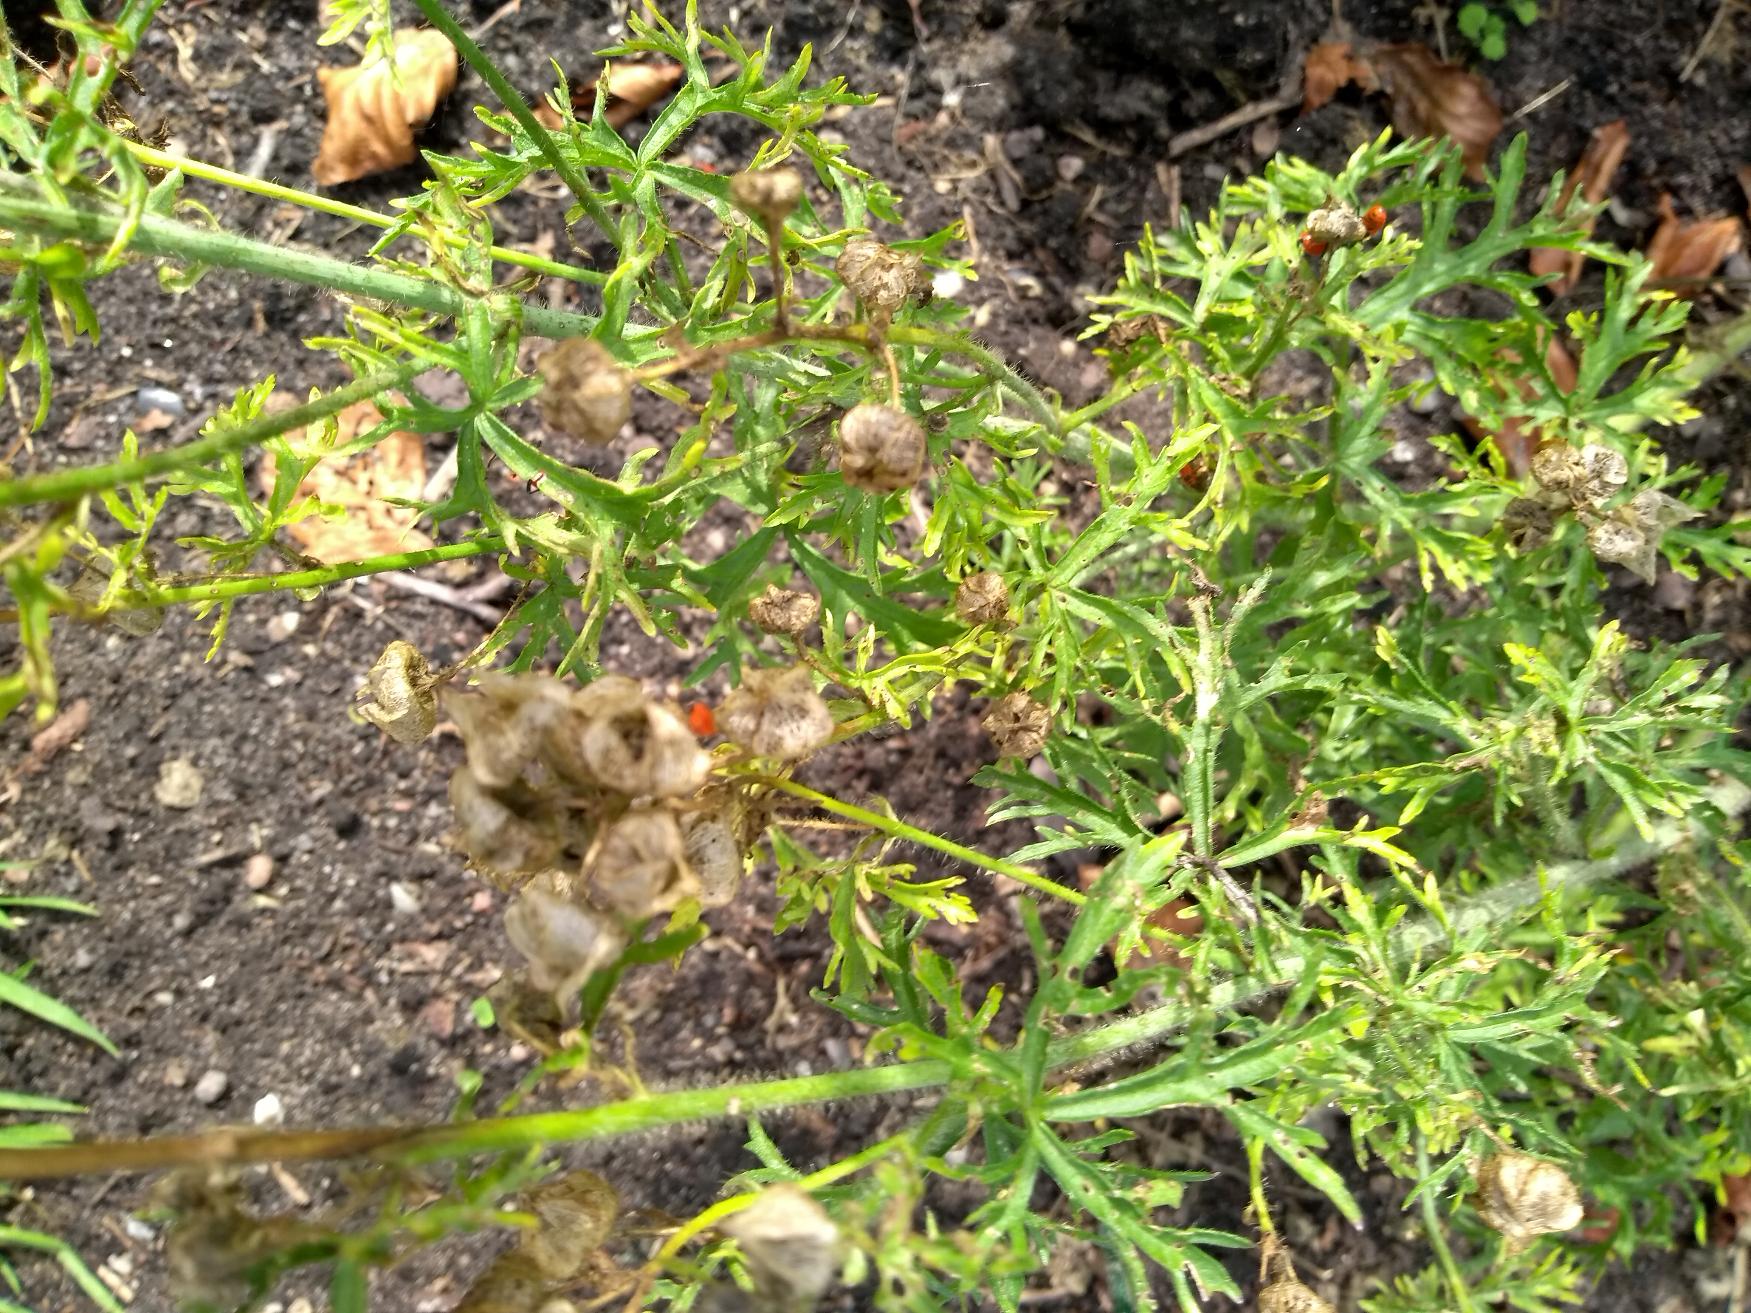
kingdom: Animalia
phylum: Arthropoda
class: Insecta
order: Hemiptera
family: Pyrrhocoridae
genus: Pyrrhocoris
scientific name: Pyrrhocoris apterus
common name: Ildtæge
